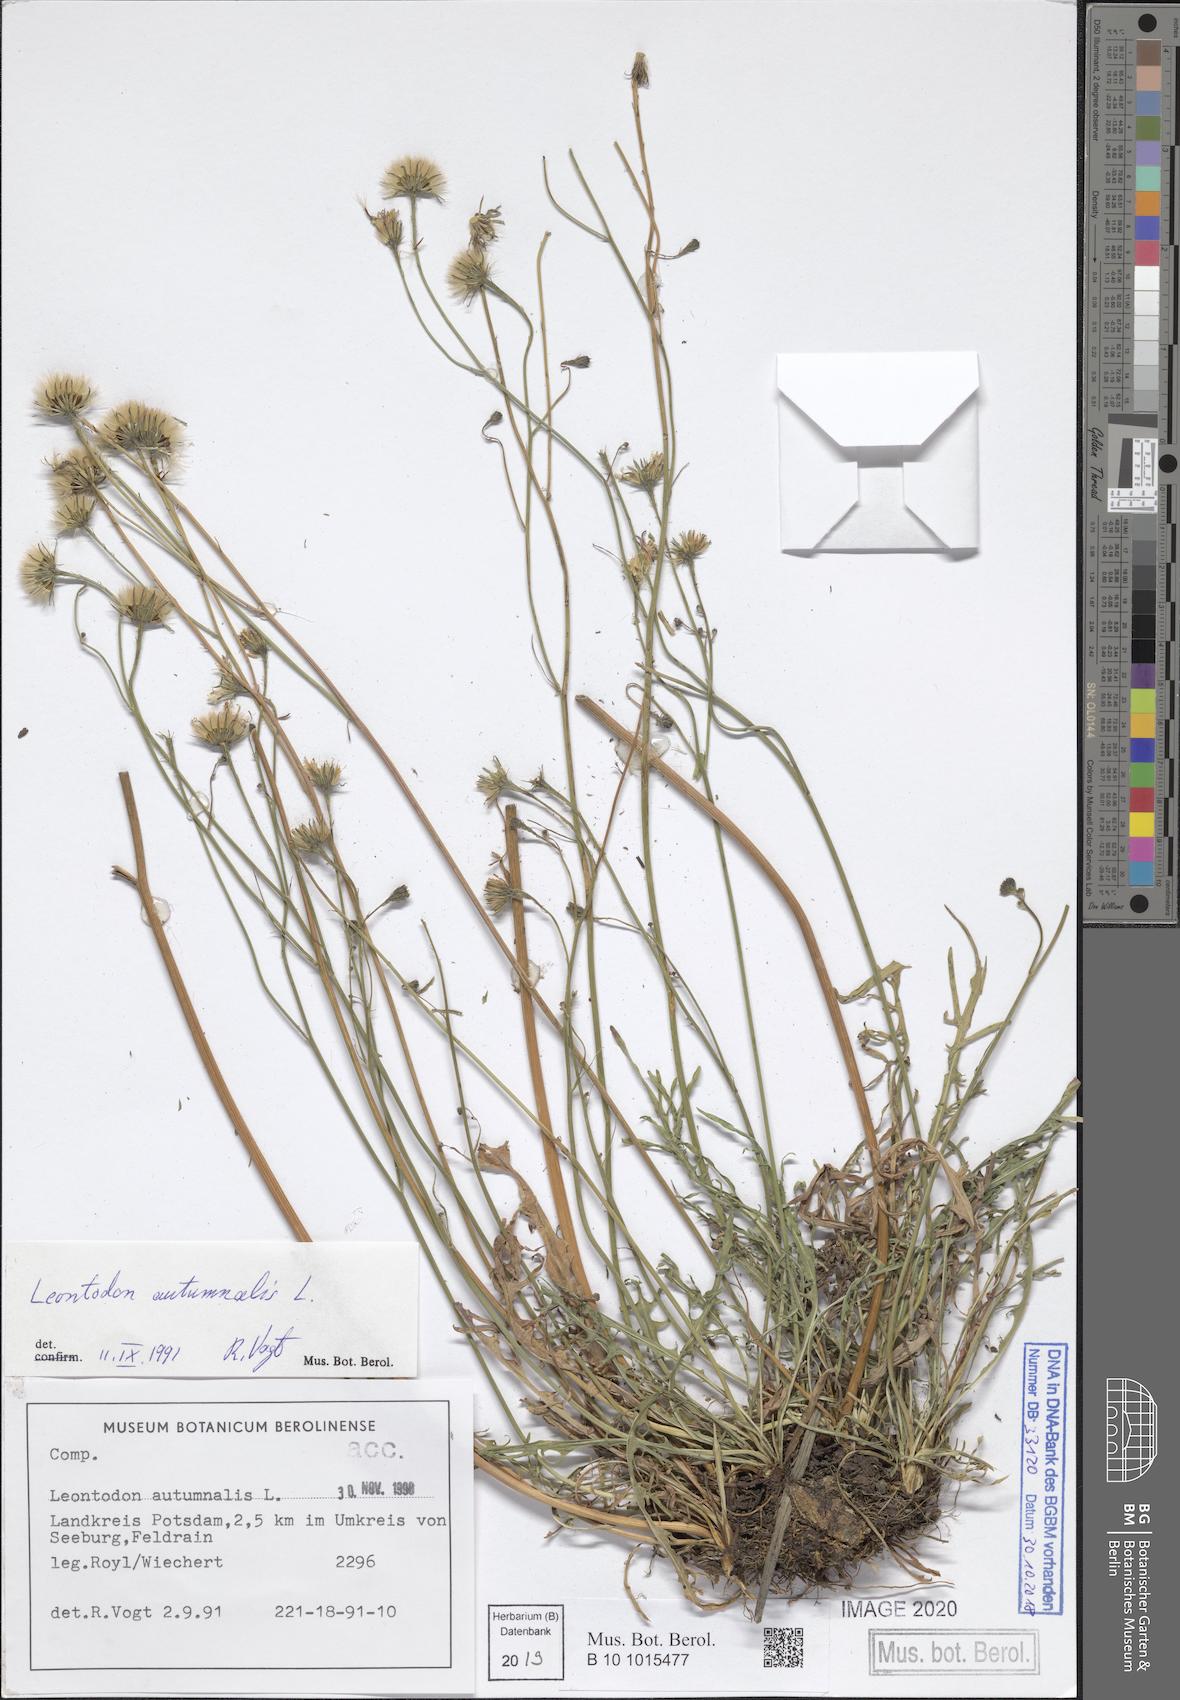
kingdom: Plantae
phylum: Tracheophyta
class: Magnoliopsida
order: Asterales
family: Asteraceae
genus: Scorzoneroides
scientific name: Scorzoneroides autumnalis
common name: Autumn hawkbit
